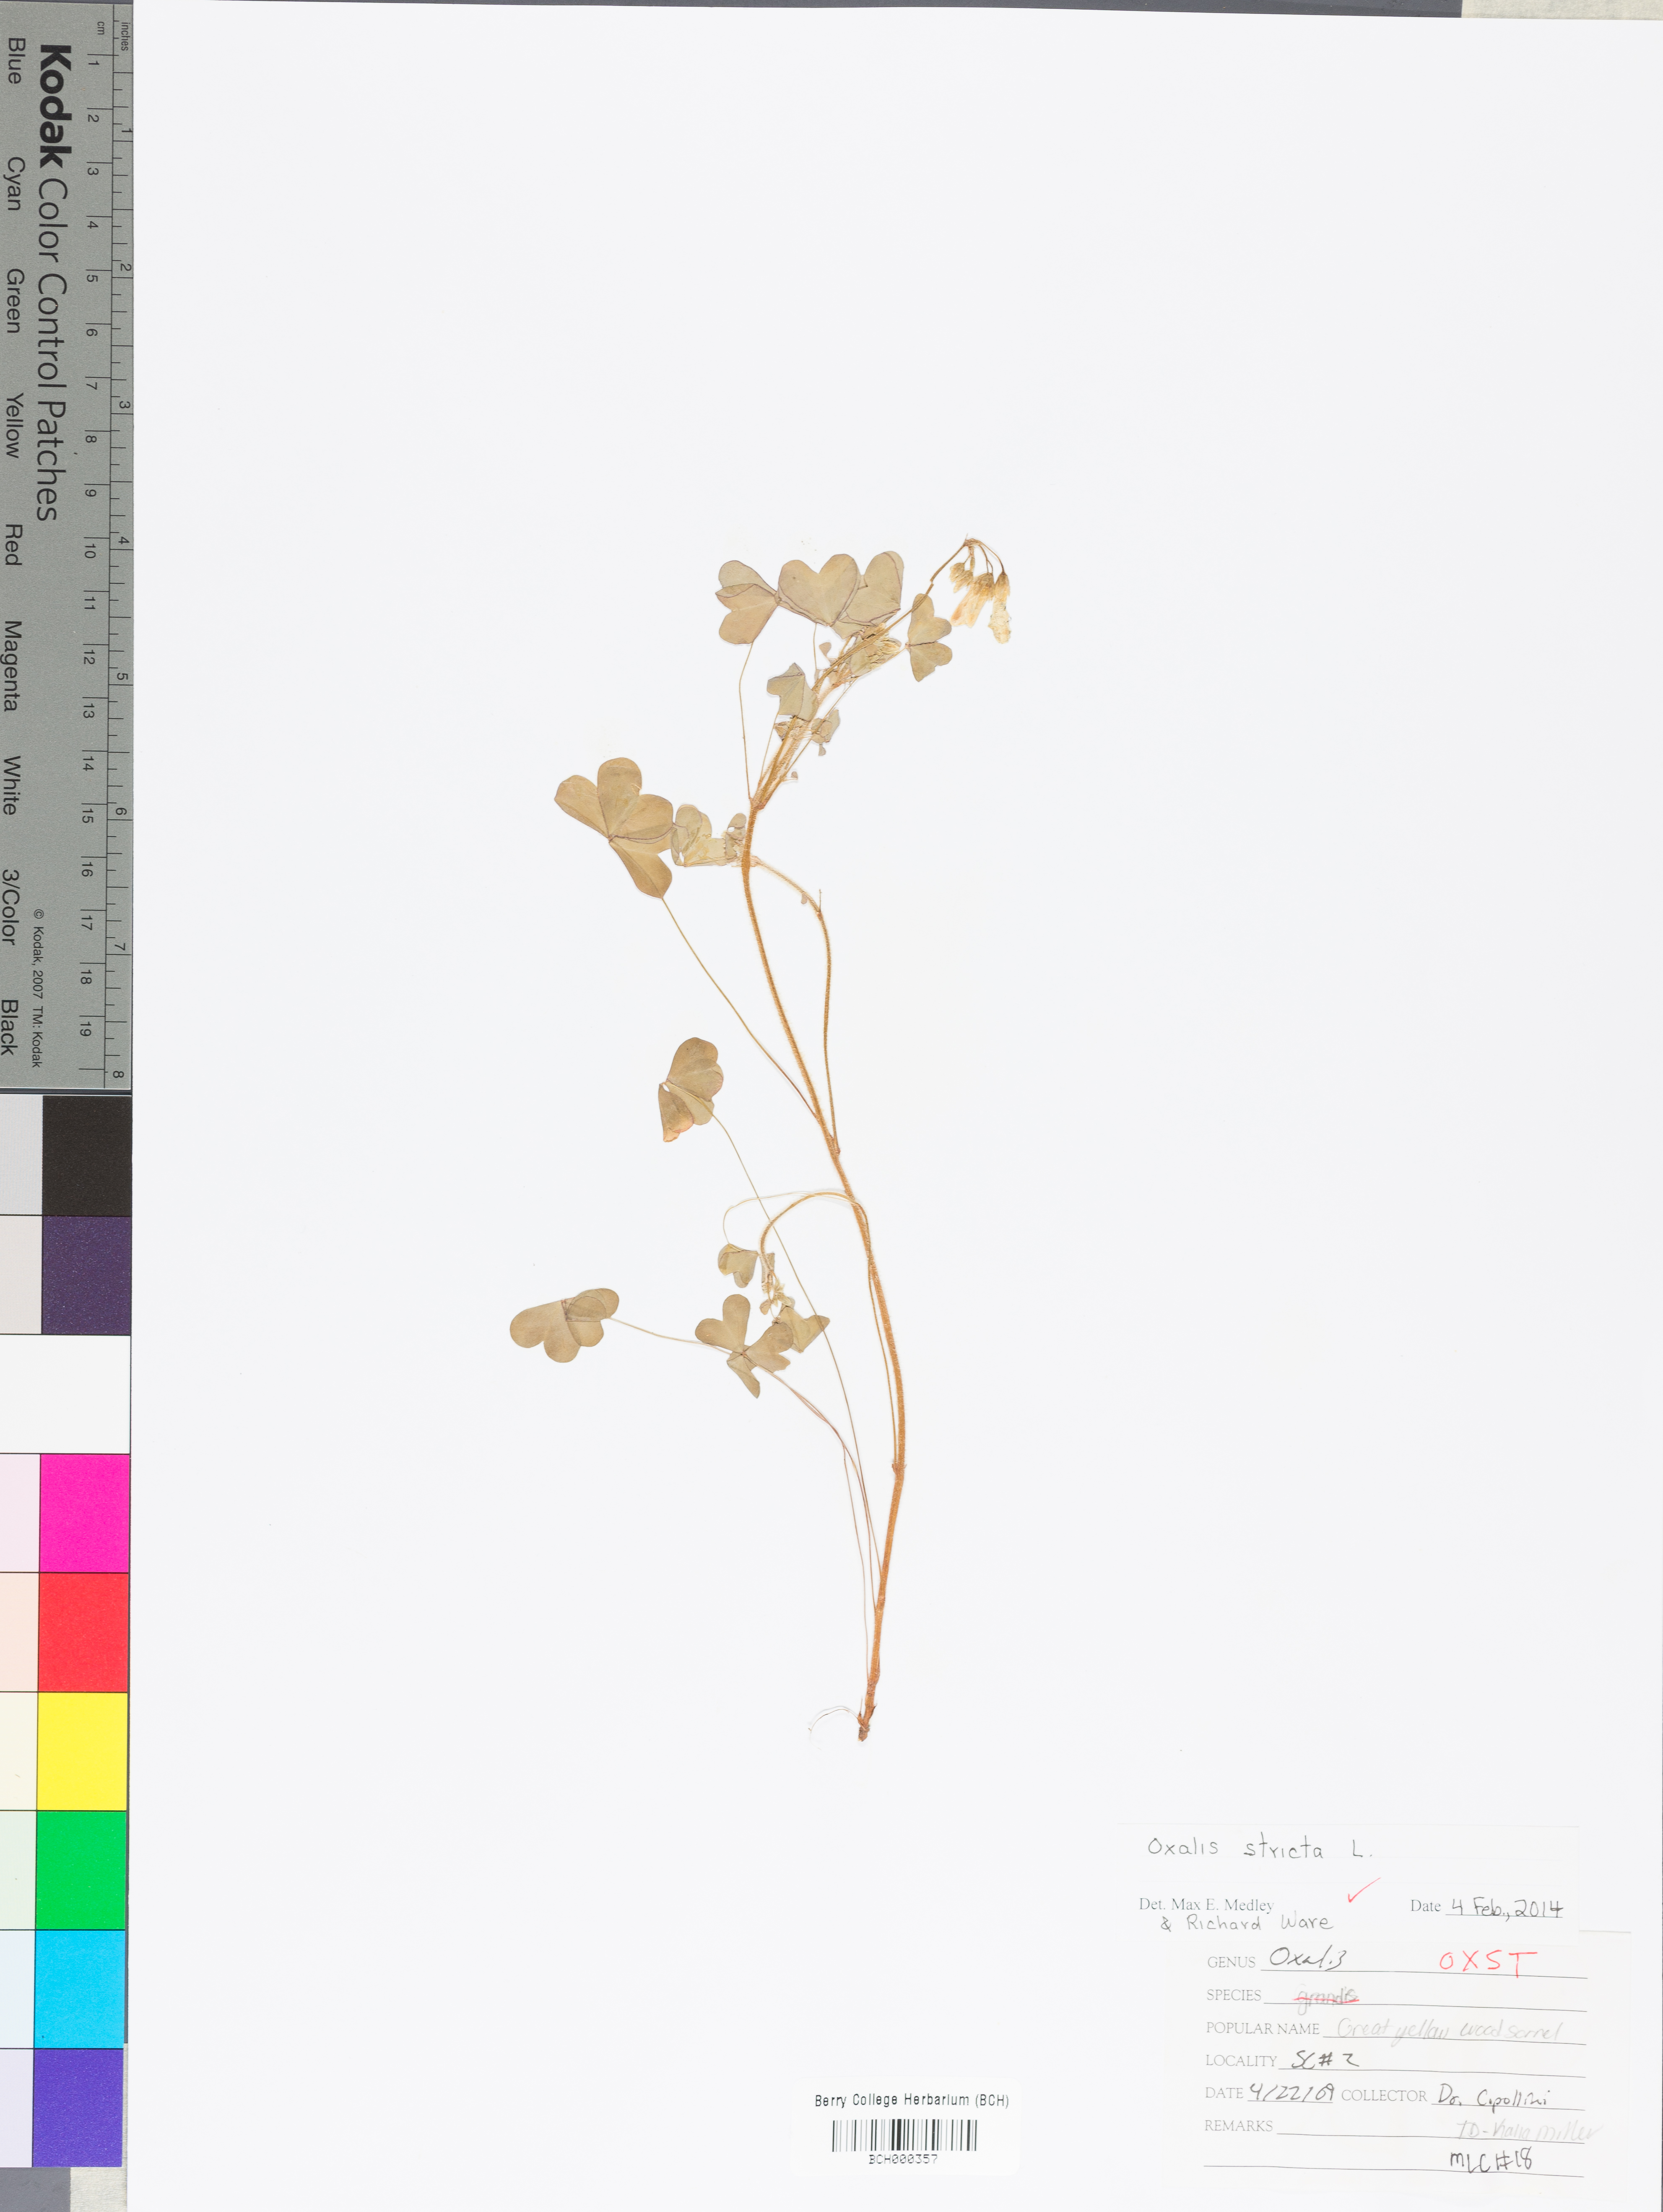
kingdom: Plantae
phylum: Tracheophyta
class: Magnoliopsida
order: Oxalidales
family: Oxalidaceae
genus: Oxalis
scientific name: Oxalis stricta
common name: Upright yellow-sorrel
